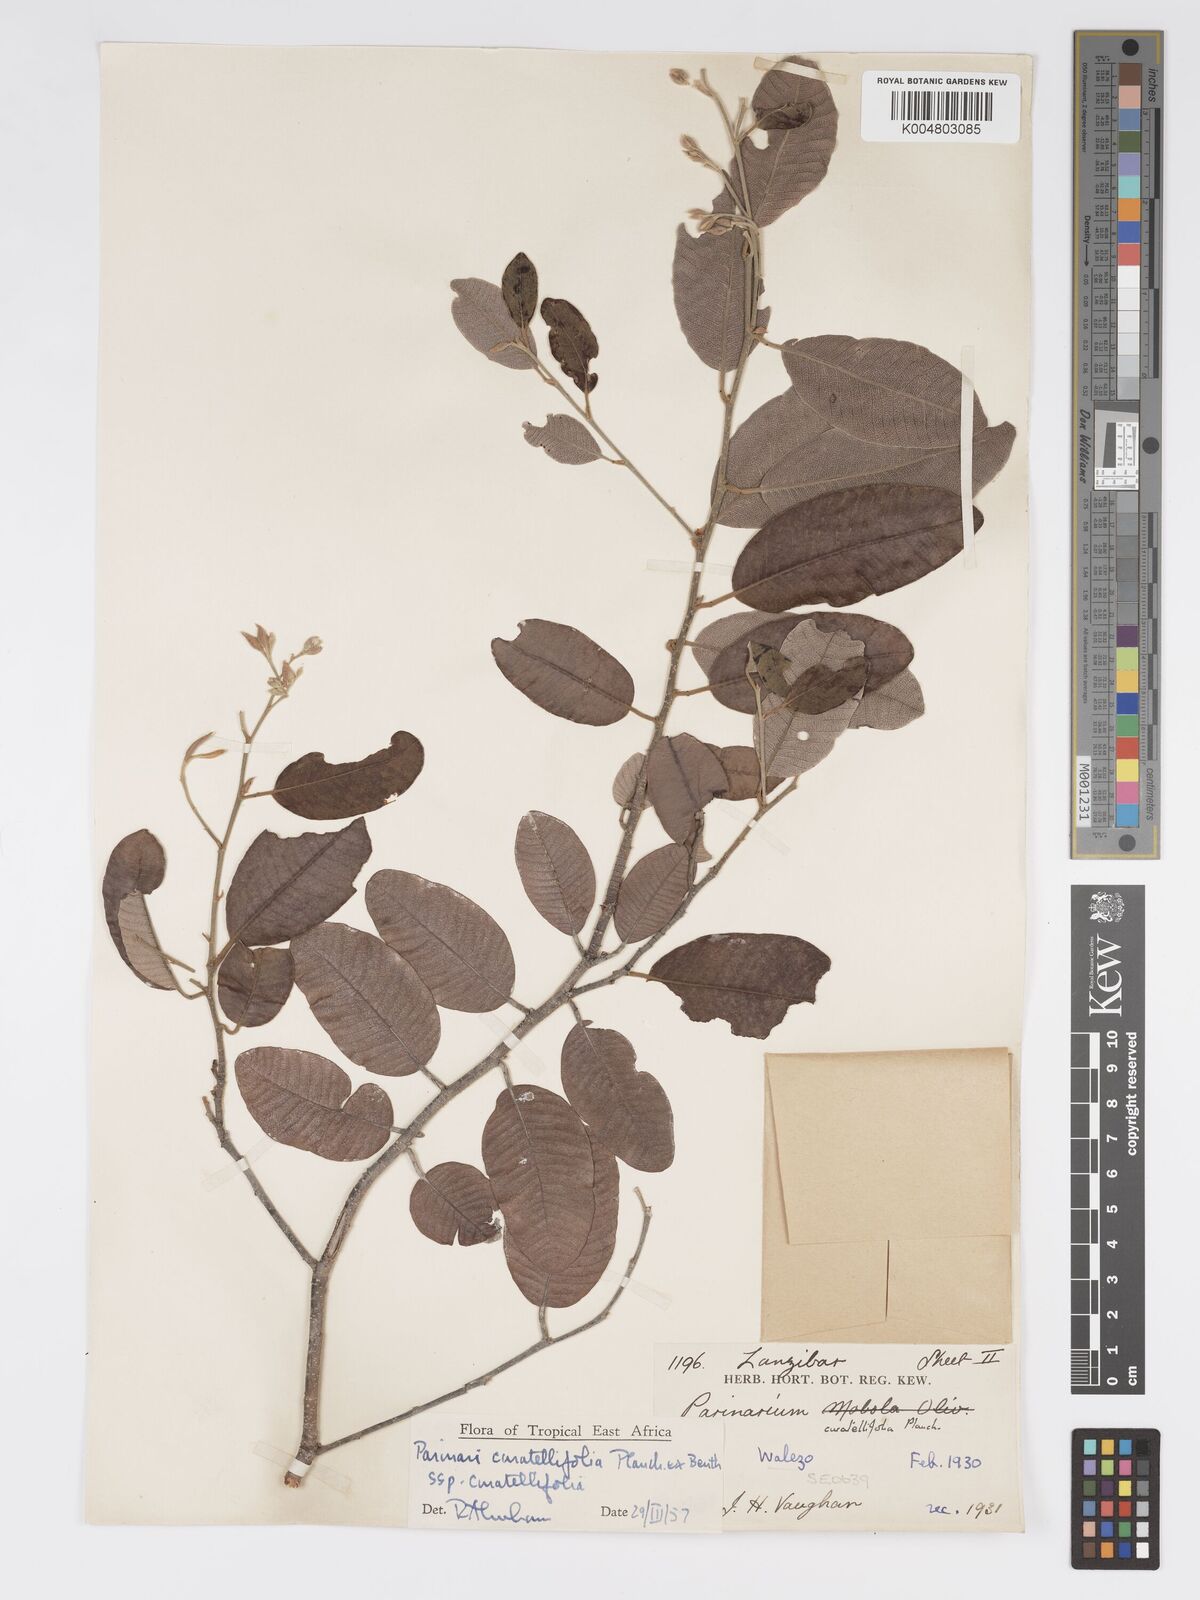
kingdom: Plantae
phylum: Tracheophyta
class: Magnoliopsida
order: Malpighiales
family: Chrysobalanaceae
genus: Parinari
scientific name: Parinari curatellifolia
